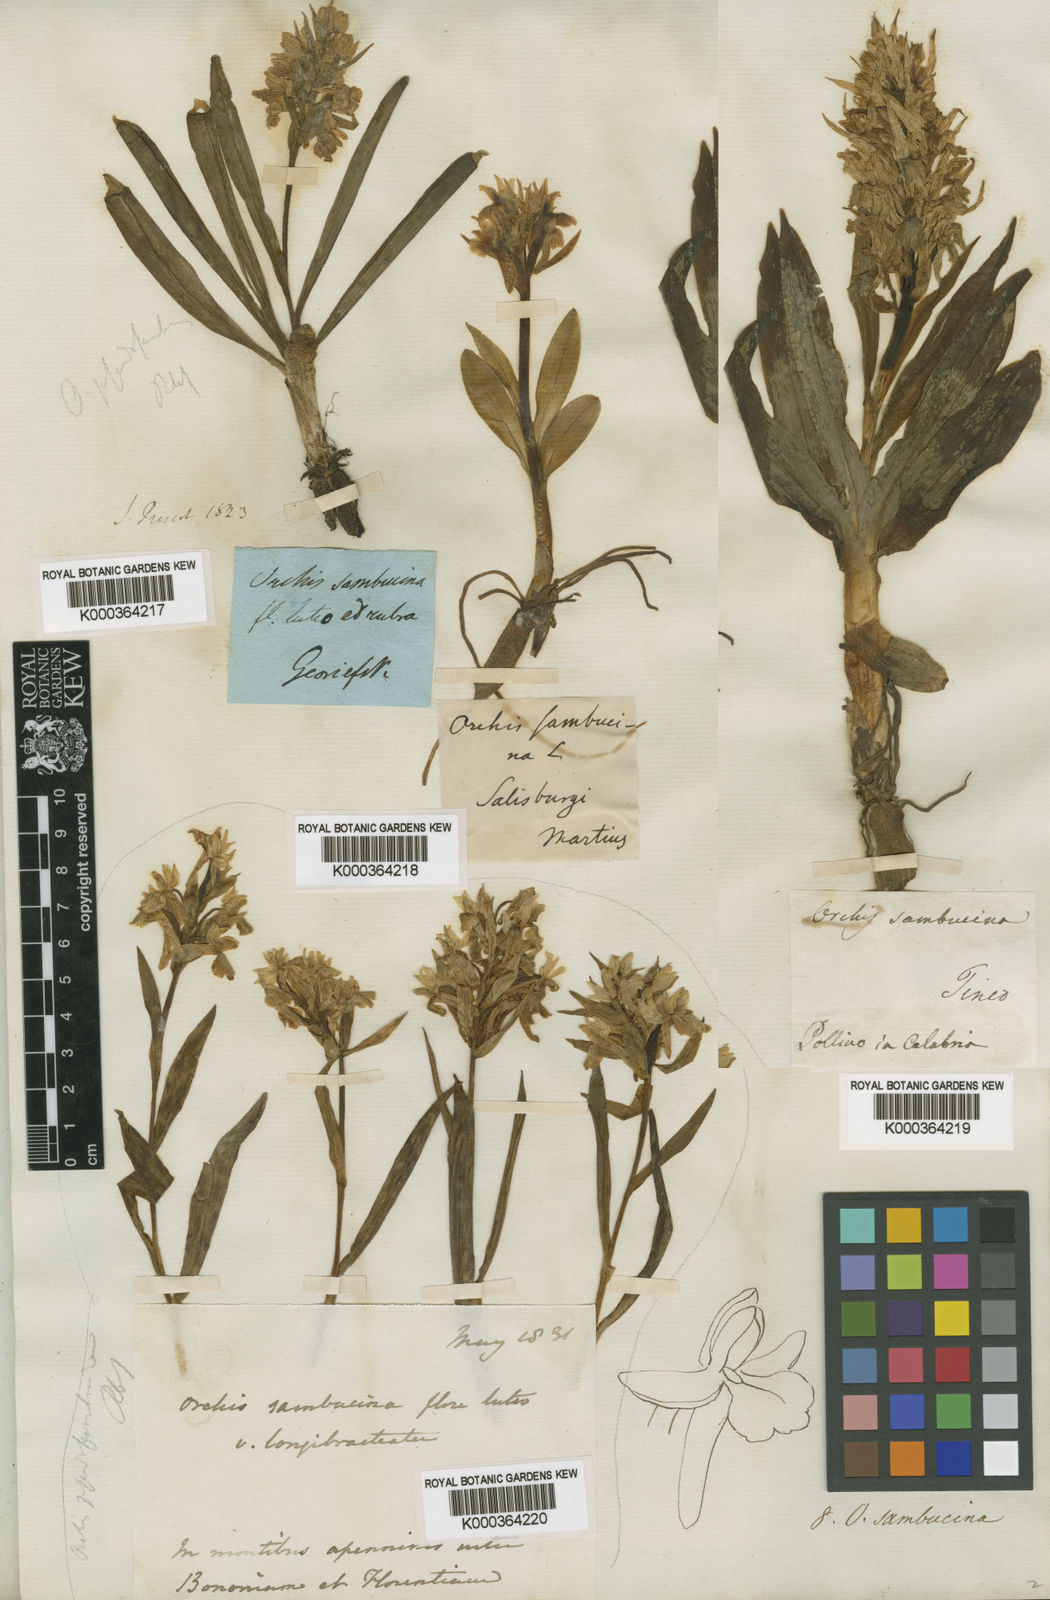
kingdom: Plantae
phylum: Tracheophyta
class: Liliopsida
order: Asparagales
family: Orchidaceae
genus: Dactylorhiza
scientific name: Dactylorhiza
